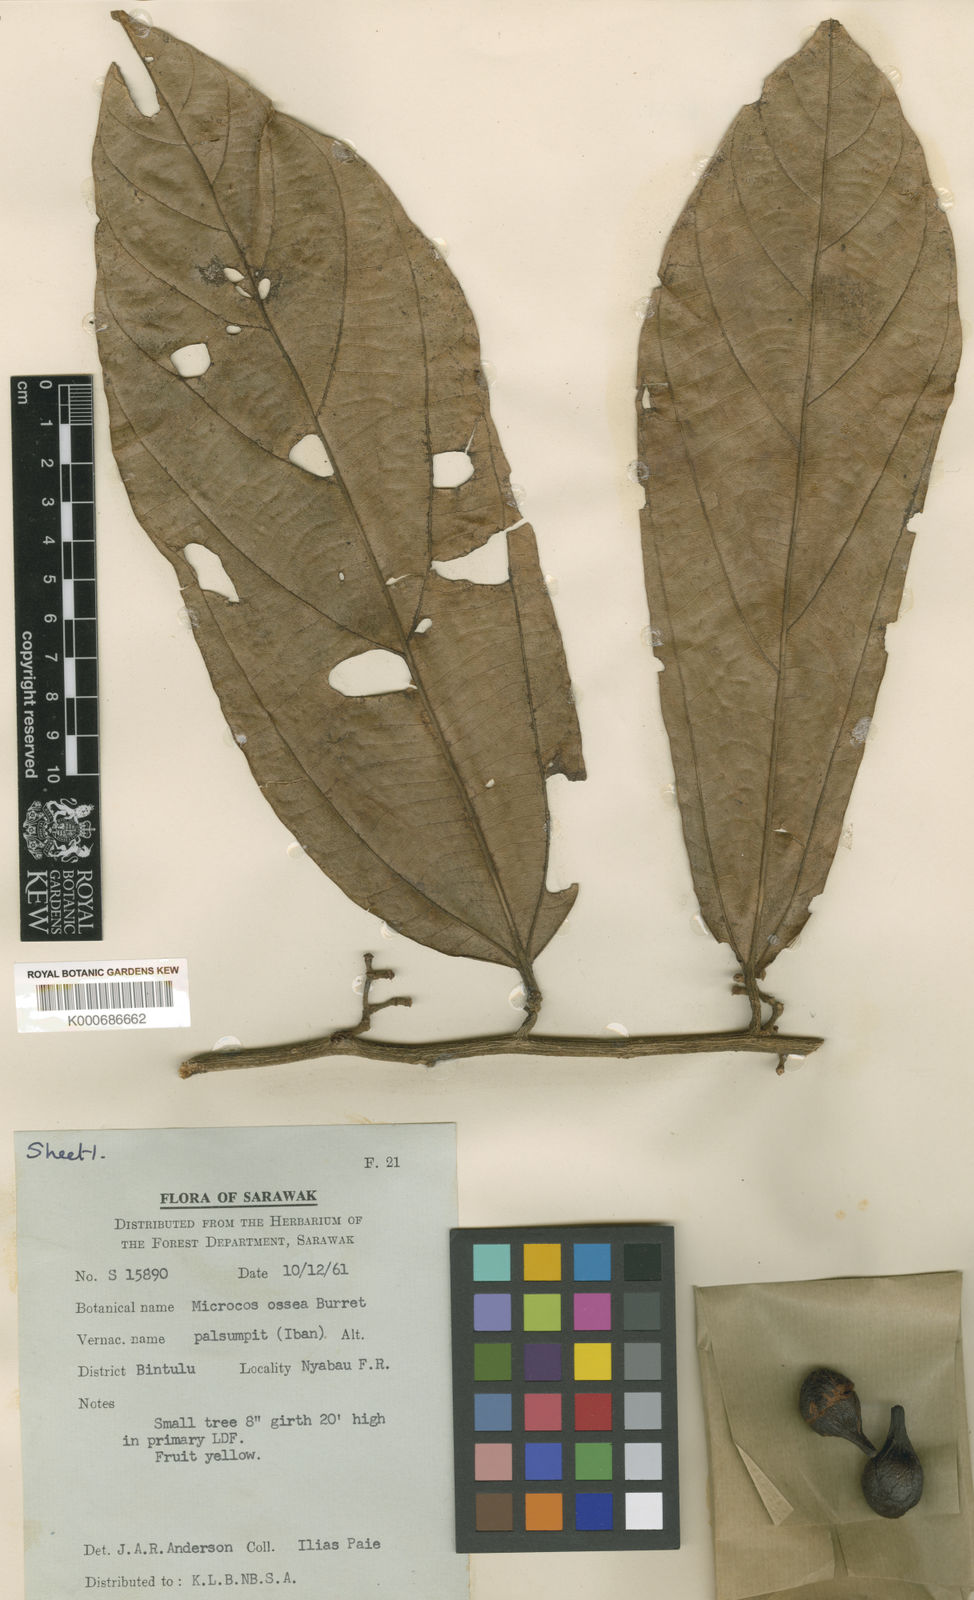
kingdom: Plantae
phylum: Tracheophyta
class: Magnoliopsida
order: Malvales
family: Malvaceae
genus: Microcos
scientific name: Microcos ossea
